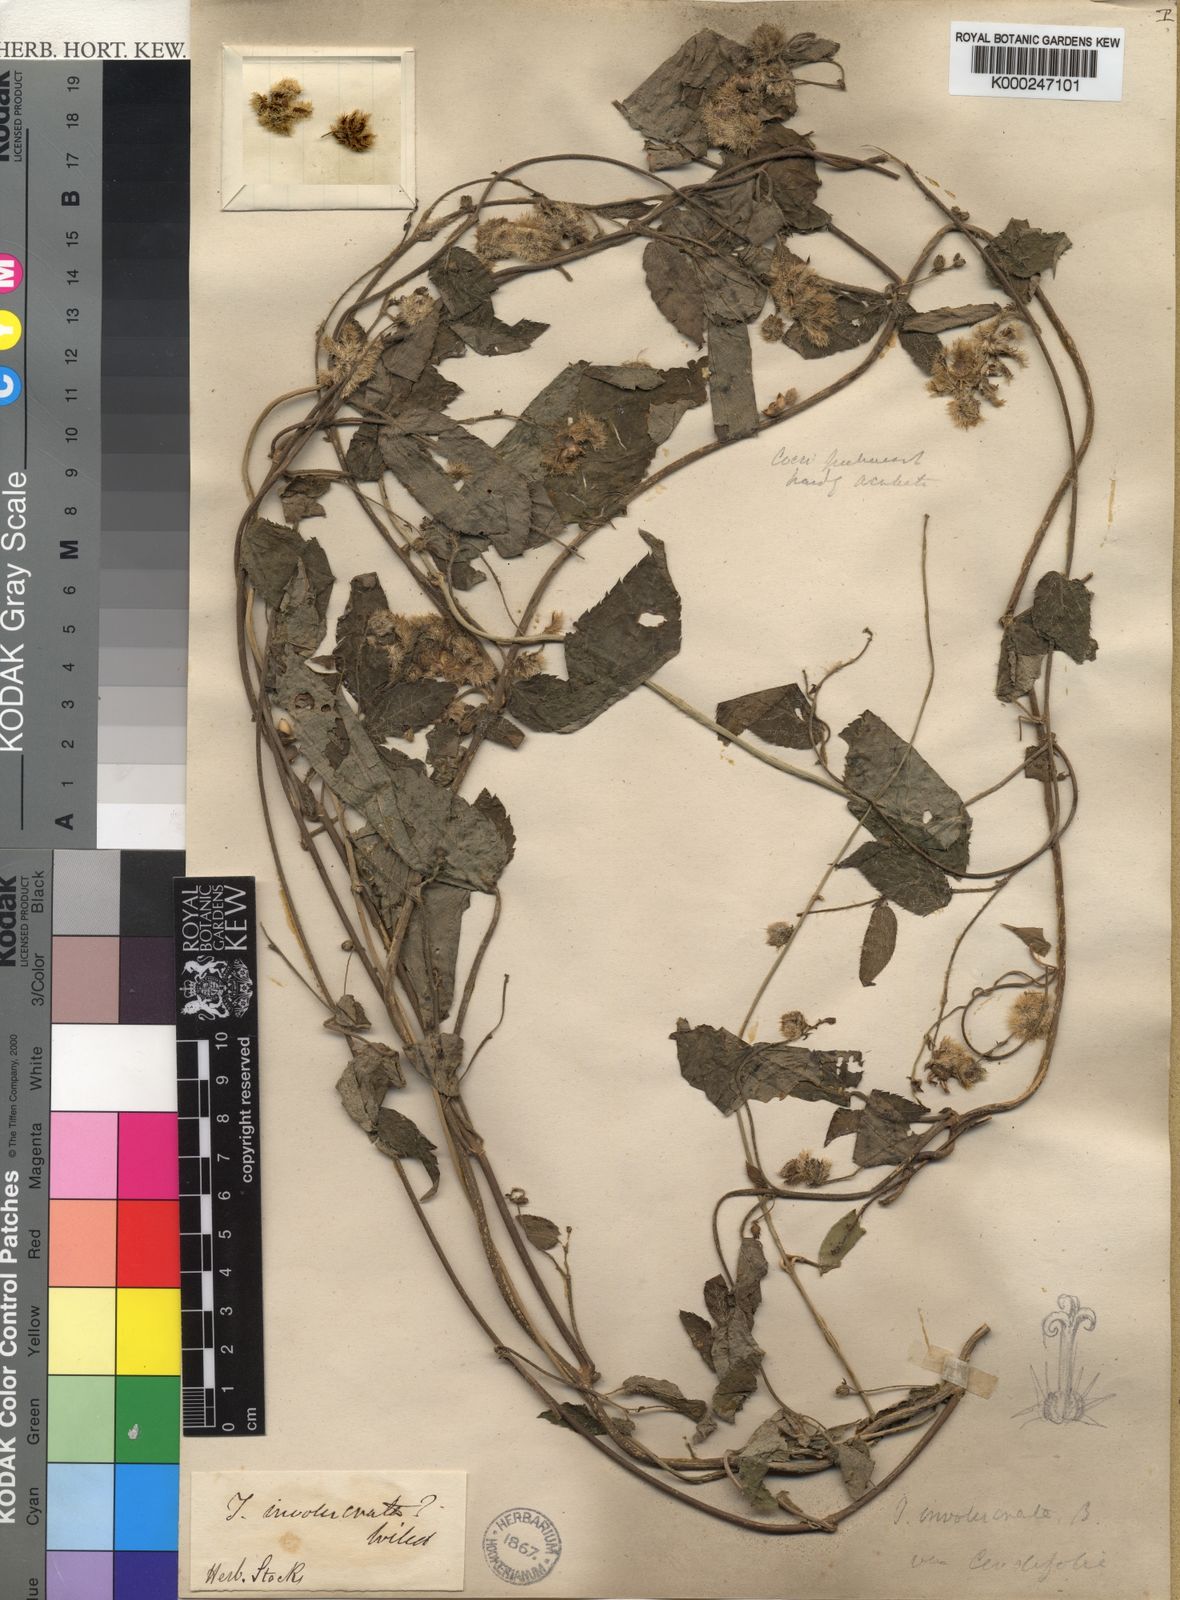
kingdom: Plantae
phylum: Tracheophyta
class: Magnoliopsida
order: Malpighiales
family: Euphorbiaceae
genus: Tragia
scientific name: Tragia montana
